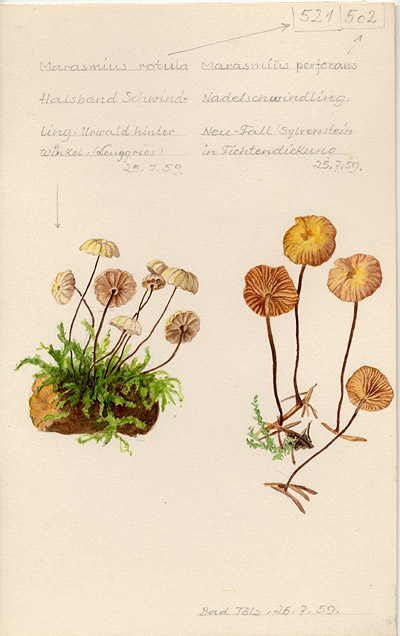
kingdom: Fungi
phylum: Basidiomycota
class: Agaricomycetes
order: Agaricales
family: Omphalotaceae
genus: Paragymnopus
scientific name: Paragymnopus perforans
